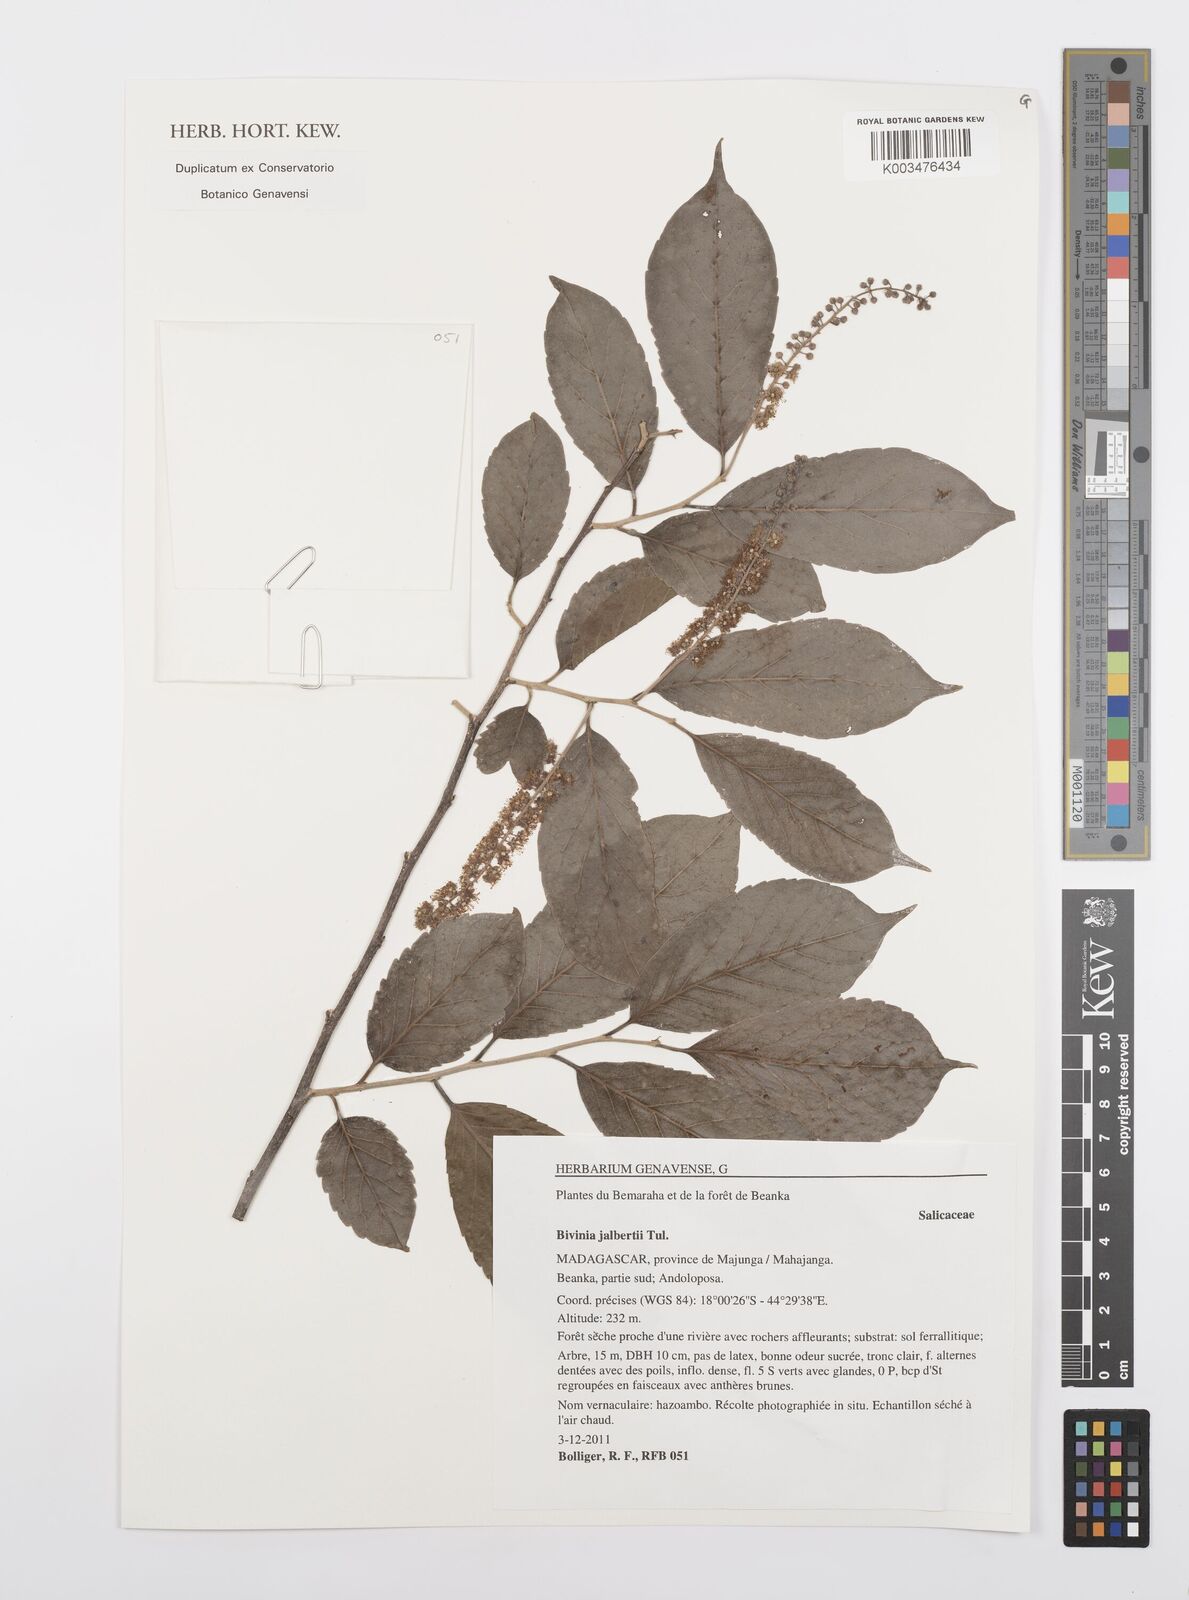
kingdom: Plantae
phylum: Tracheophyta
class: Magnoliopsida
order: Malpighiales
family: Salicaceae
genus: Bivinia
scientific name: Bivinia jalbertii
